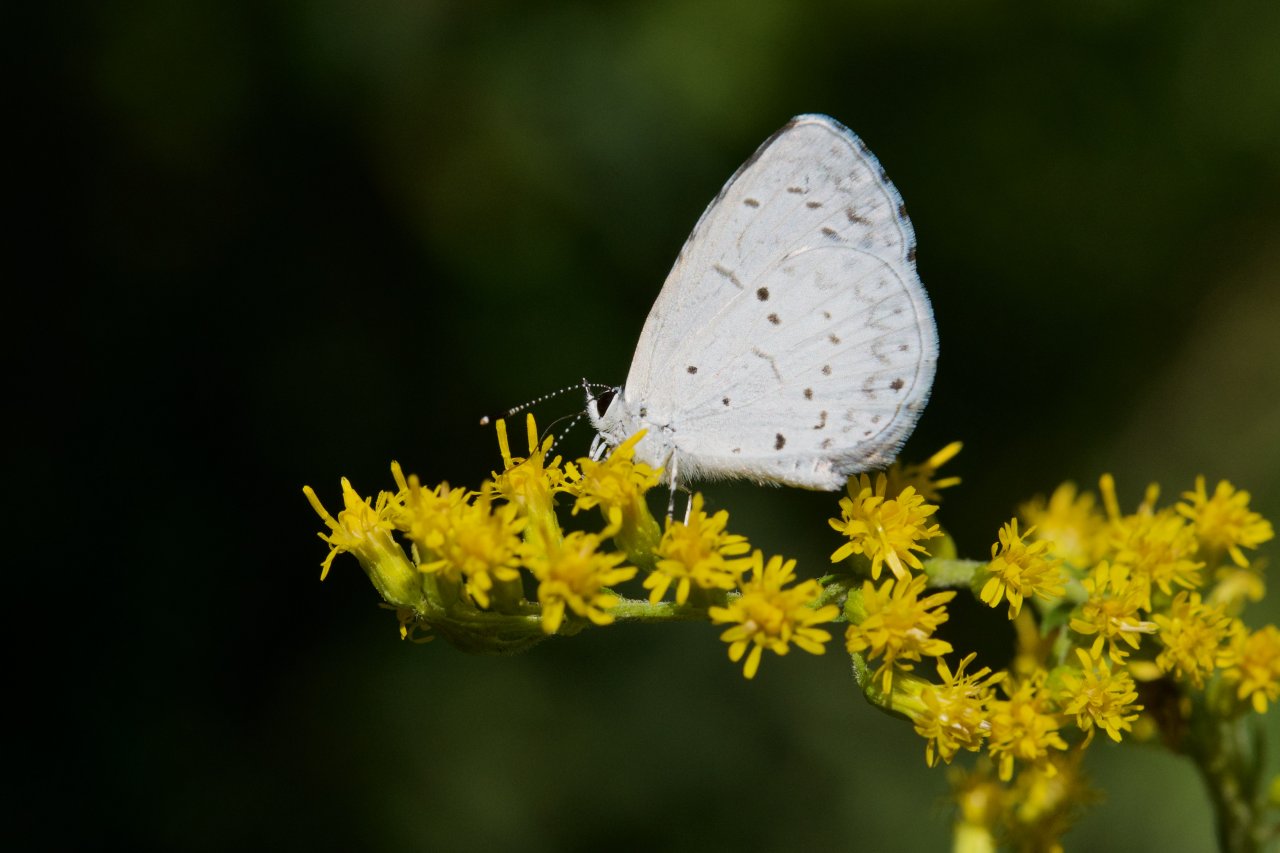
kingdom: Animalia
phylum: Arthropoda
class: Insecta
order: Lepidoptera
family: Lycaenidae
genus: Celastrina
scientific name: Celastrina lucia
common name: Northern Spring Azure
